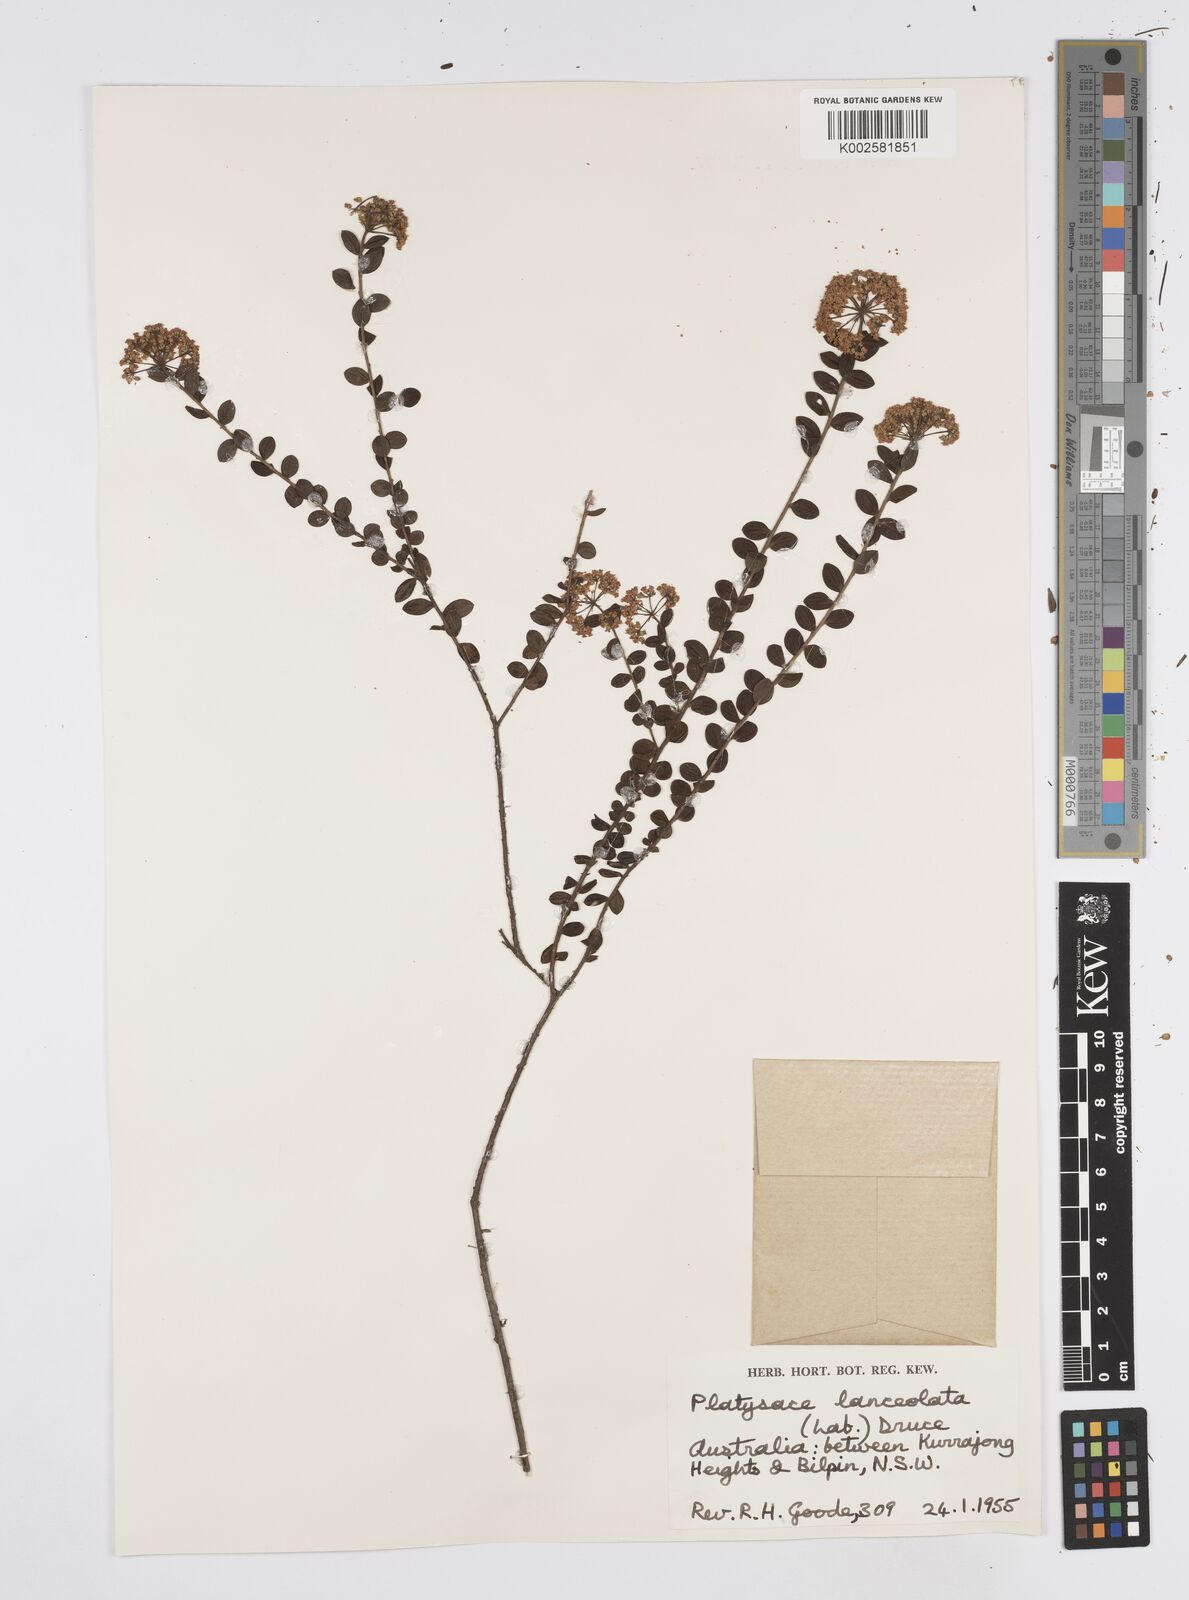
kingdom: Plantae
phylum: Tracheophyta
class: Magnoliopsida
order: Apiales
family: Apiaceae
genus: Platysace
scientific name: Platysace lanceolata
